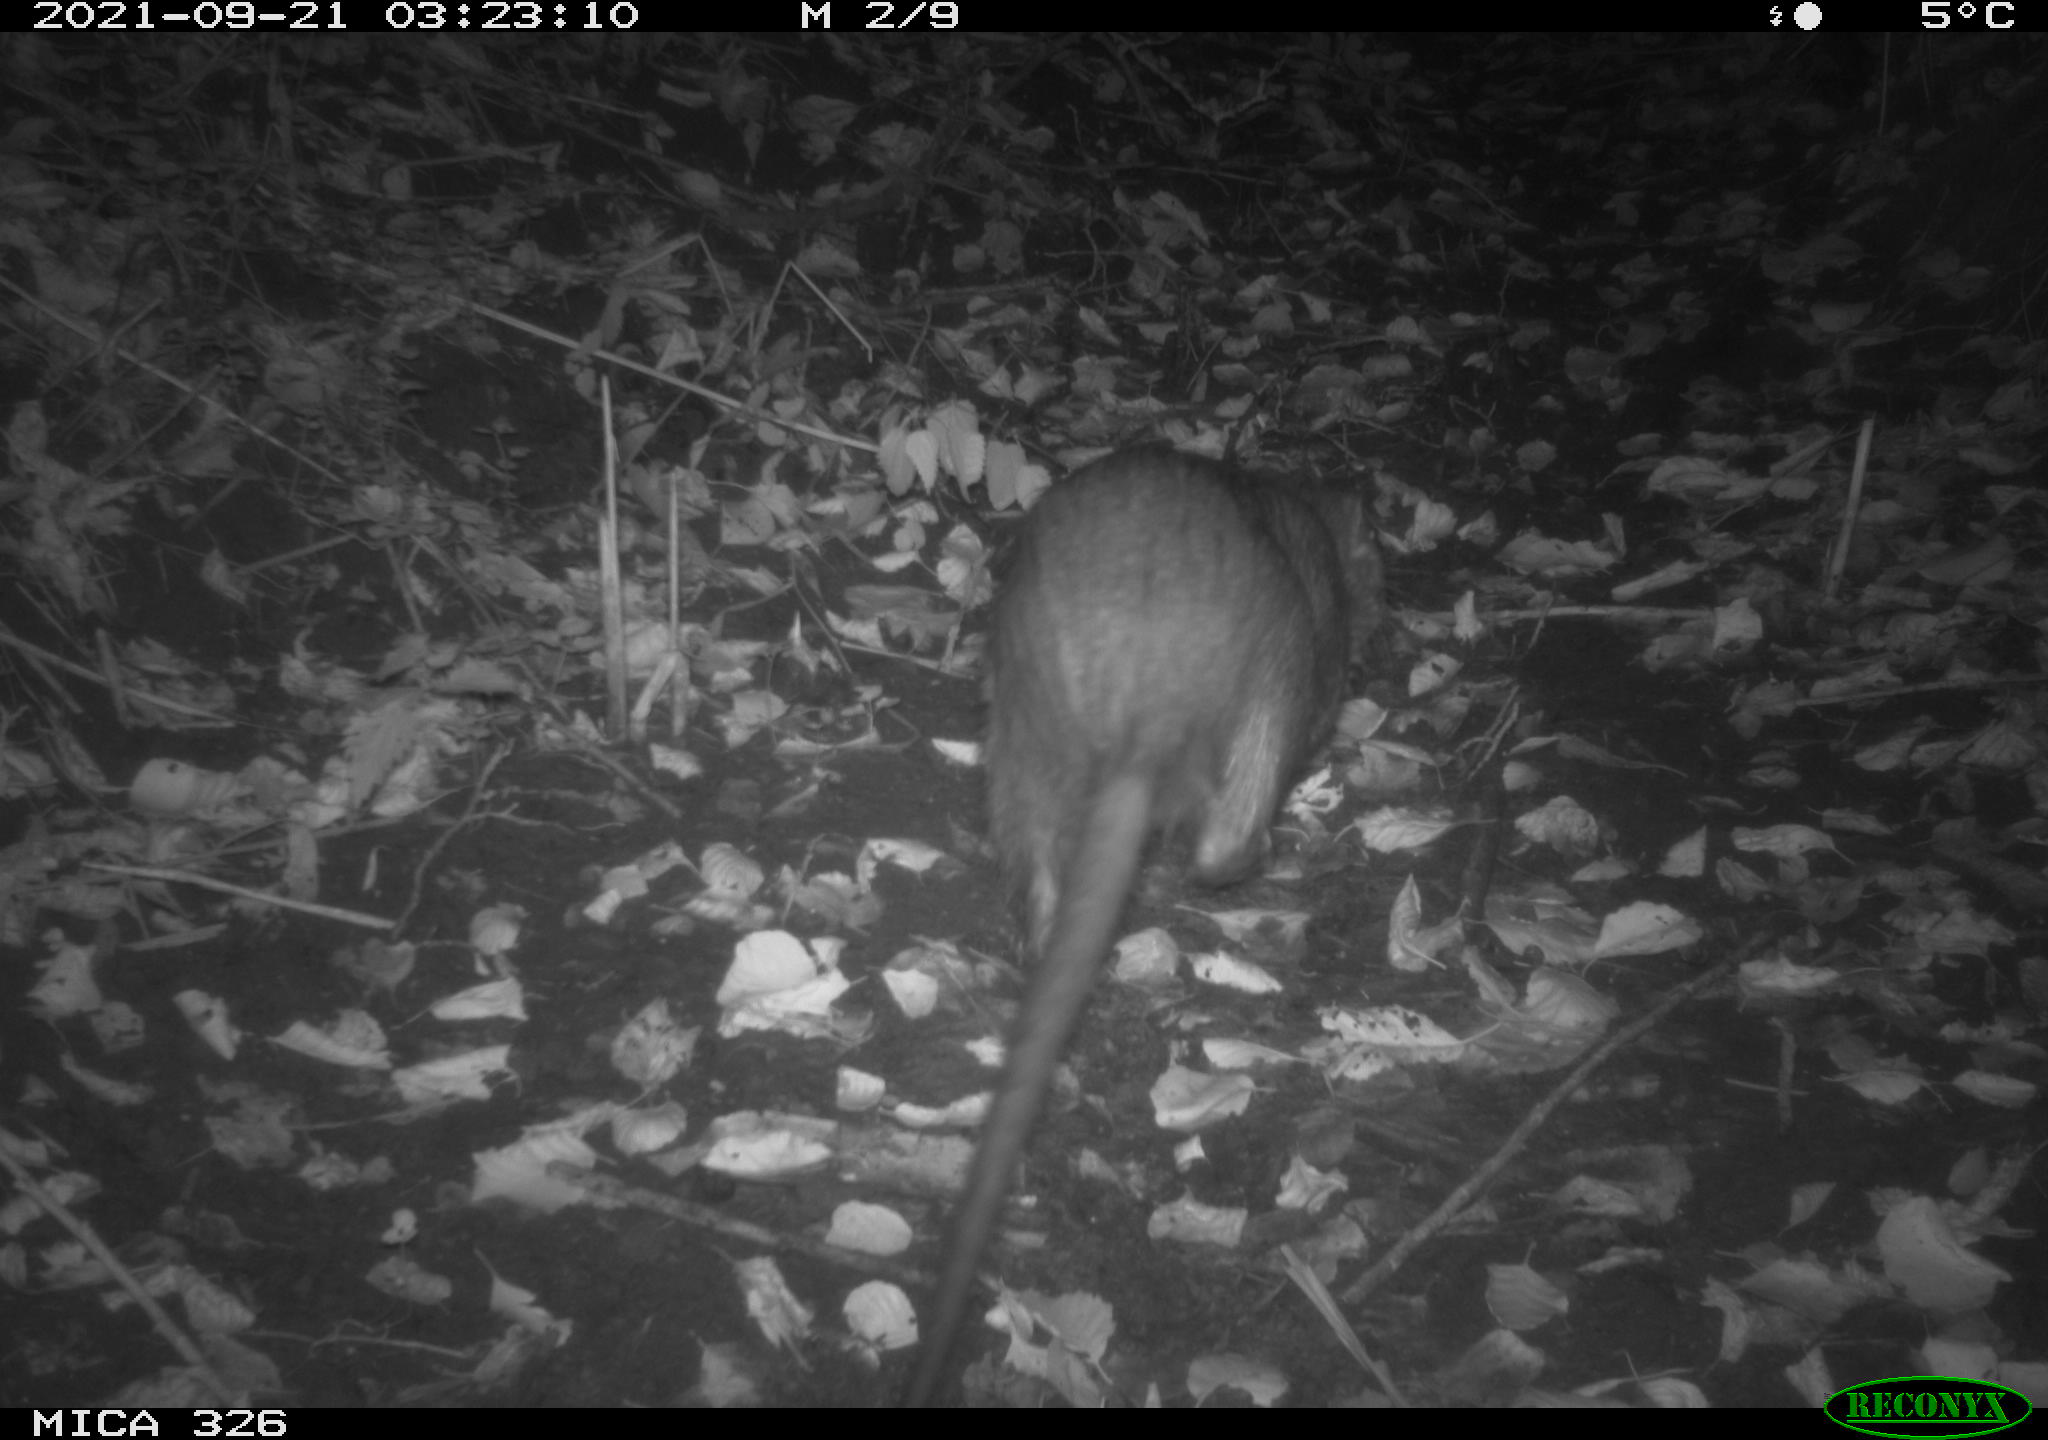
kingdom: Animalia
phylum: Chordata
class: Mammalia
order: Rodentia
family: Myocastoridae
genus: Myocastor
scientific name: Myocastor coypus
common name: Coypu
